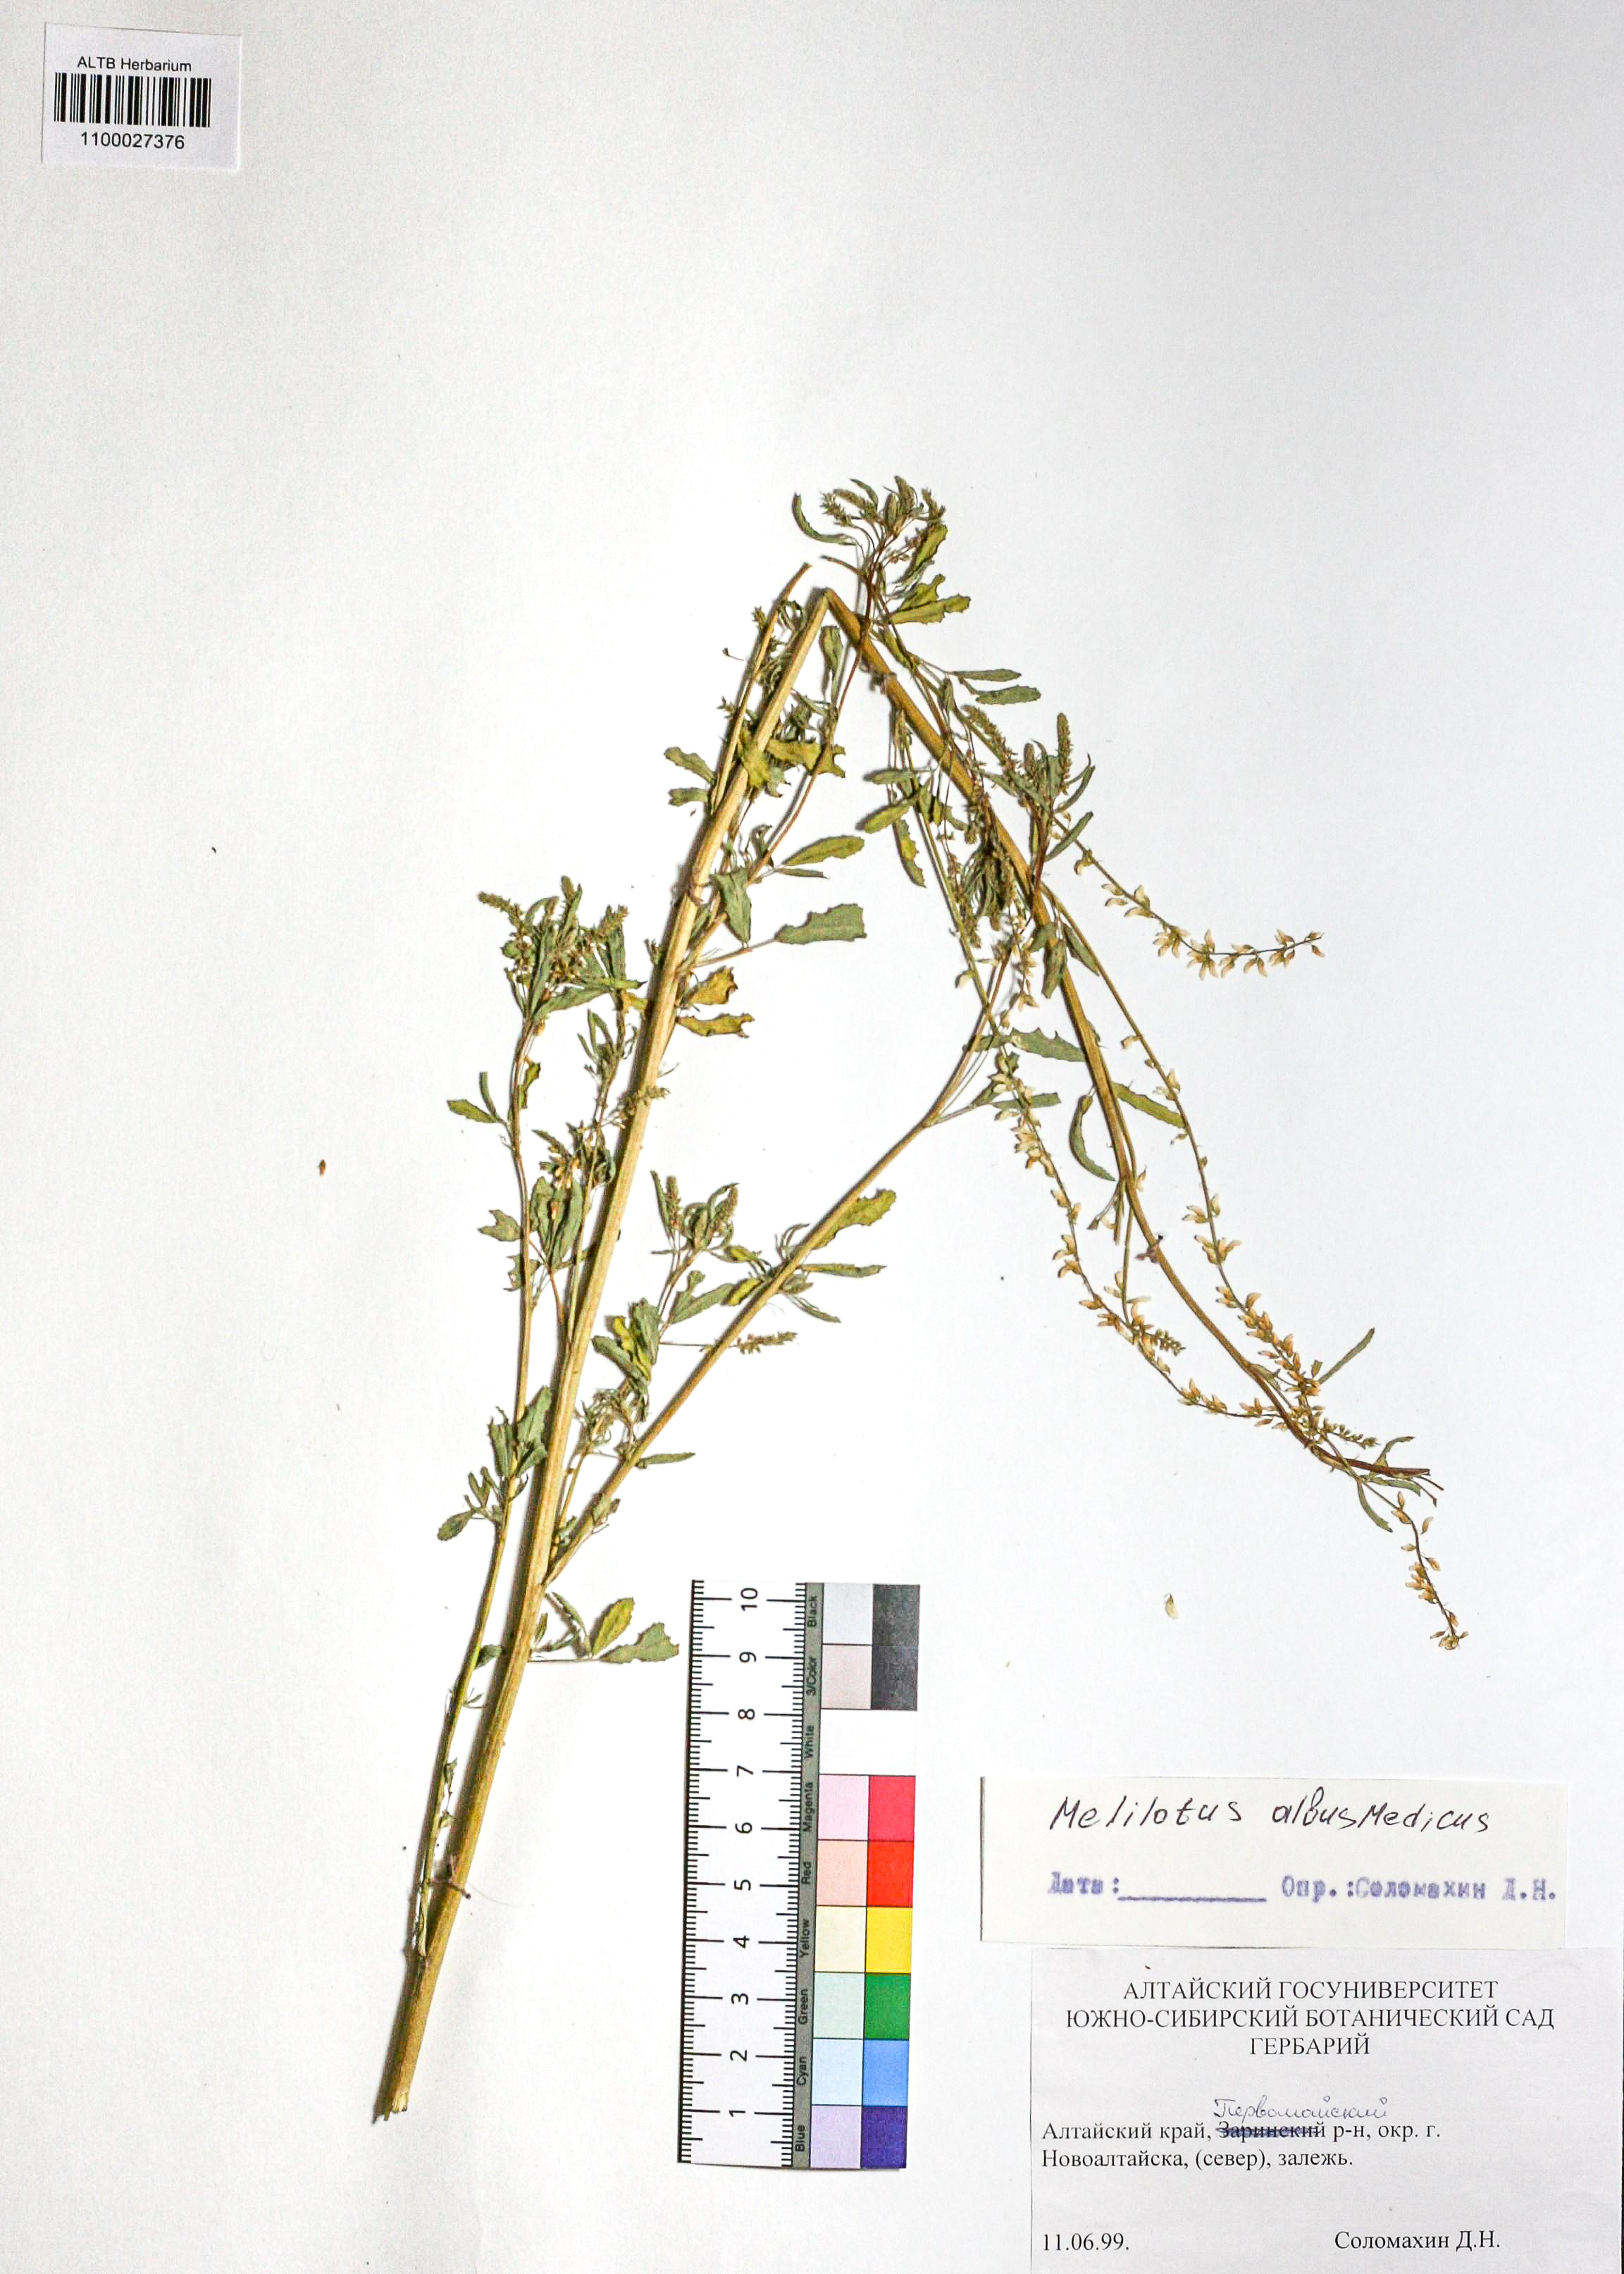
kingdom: Plantae
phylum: Tracheophyta
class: Magnoliopsida
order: Fabales
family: Fabaceae
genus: Melilotus
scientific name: Melilotus albus
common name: White melilot
